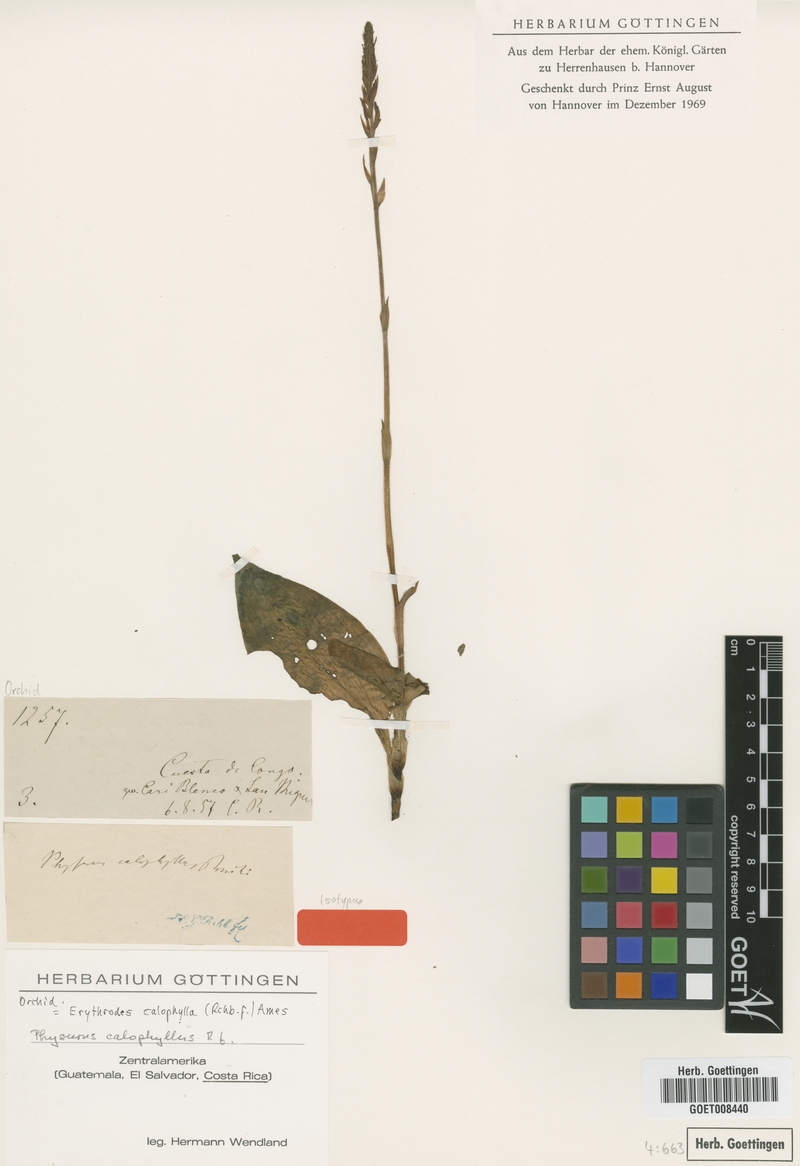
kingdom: Plantae
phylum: Tracheophyta
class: Liliopsida
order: Asparagales
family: Orchidaceae
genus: Microchilus
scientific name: Microchilus calophyllus
